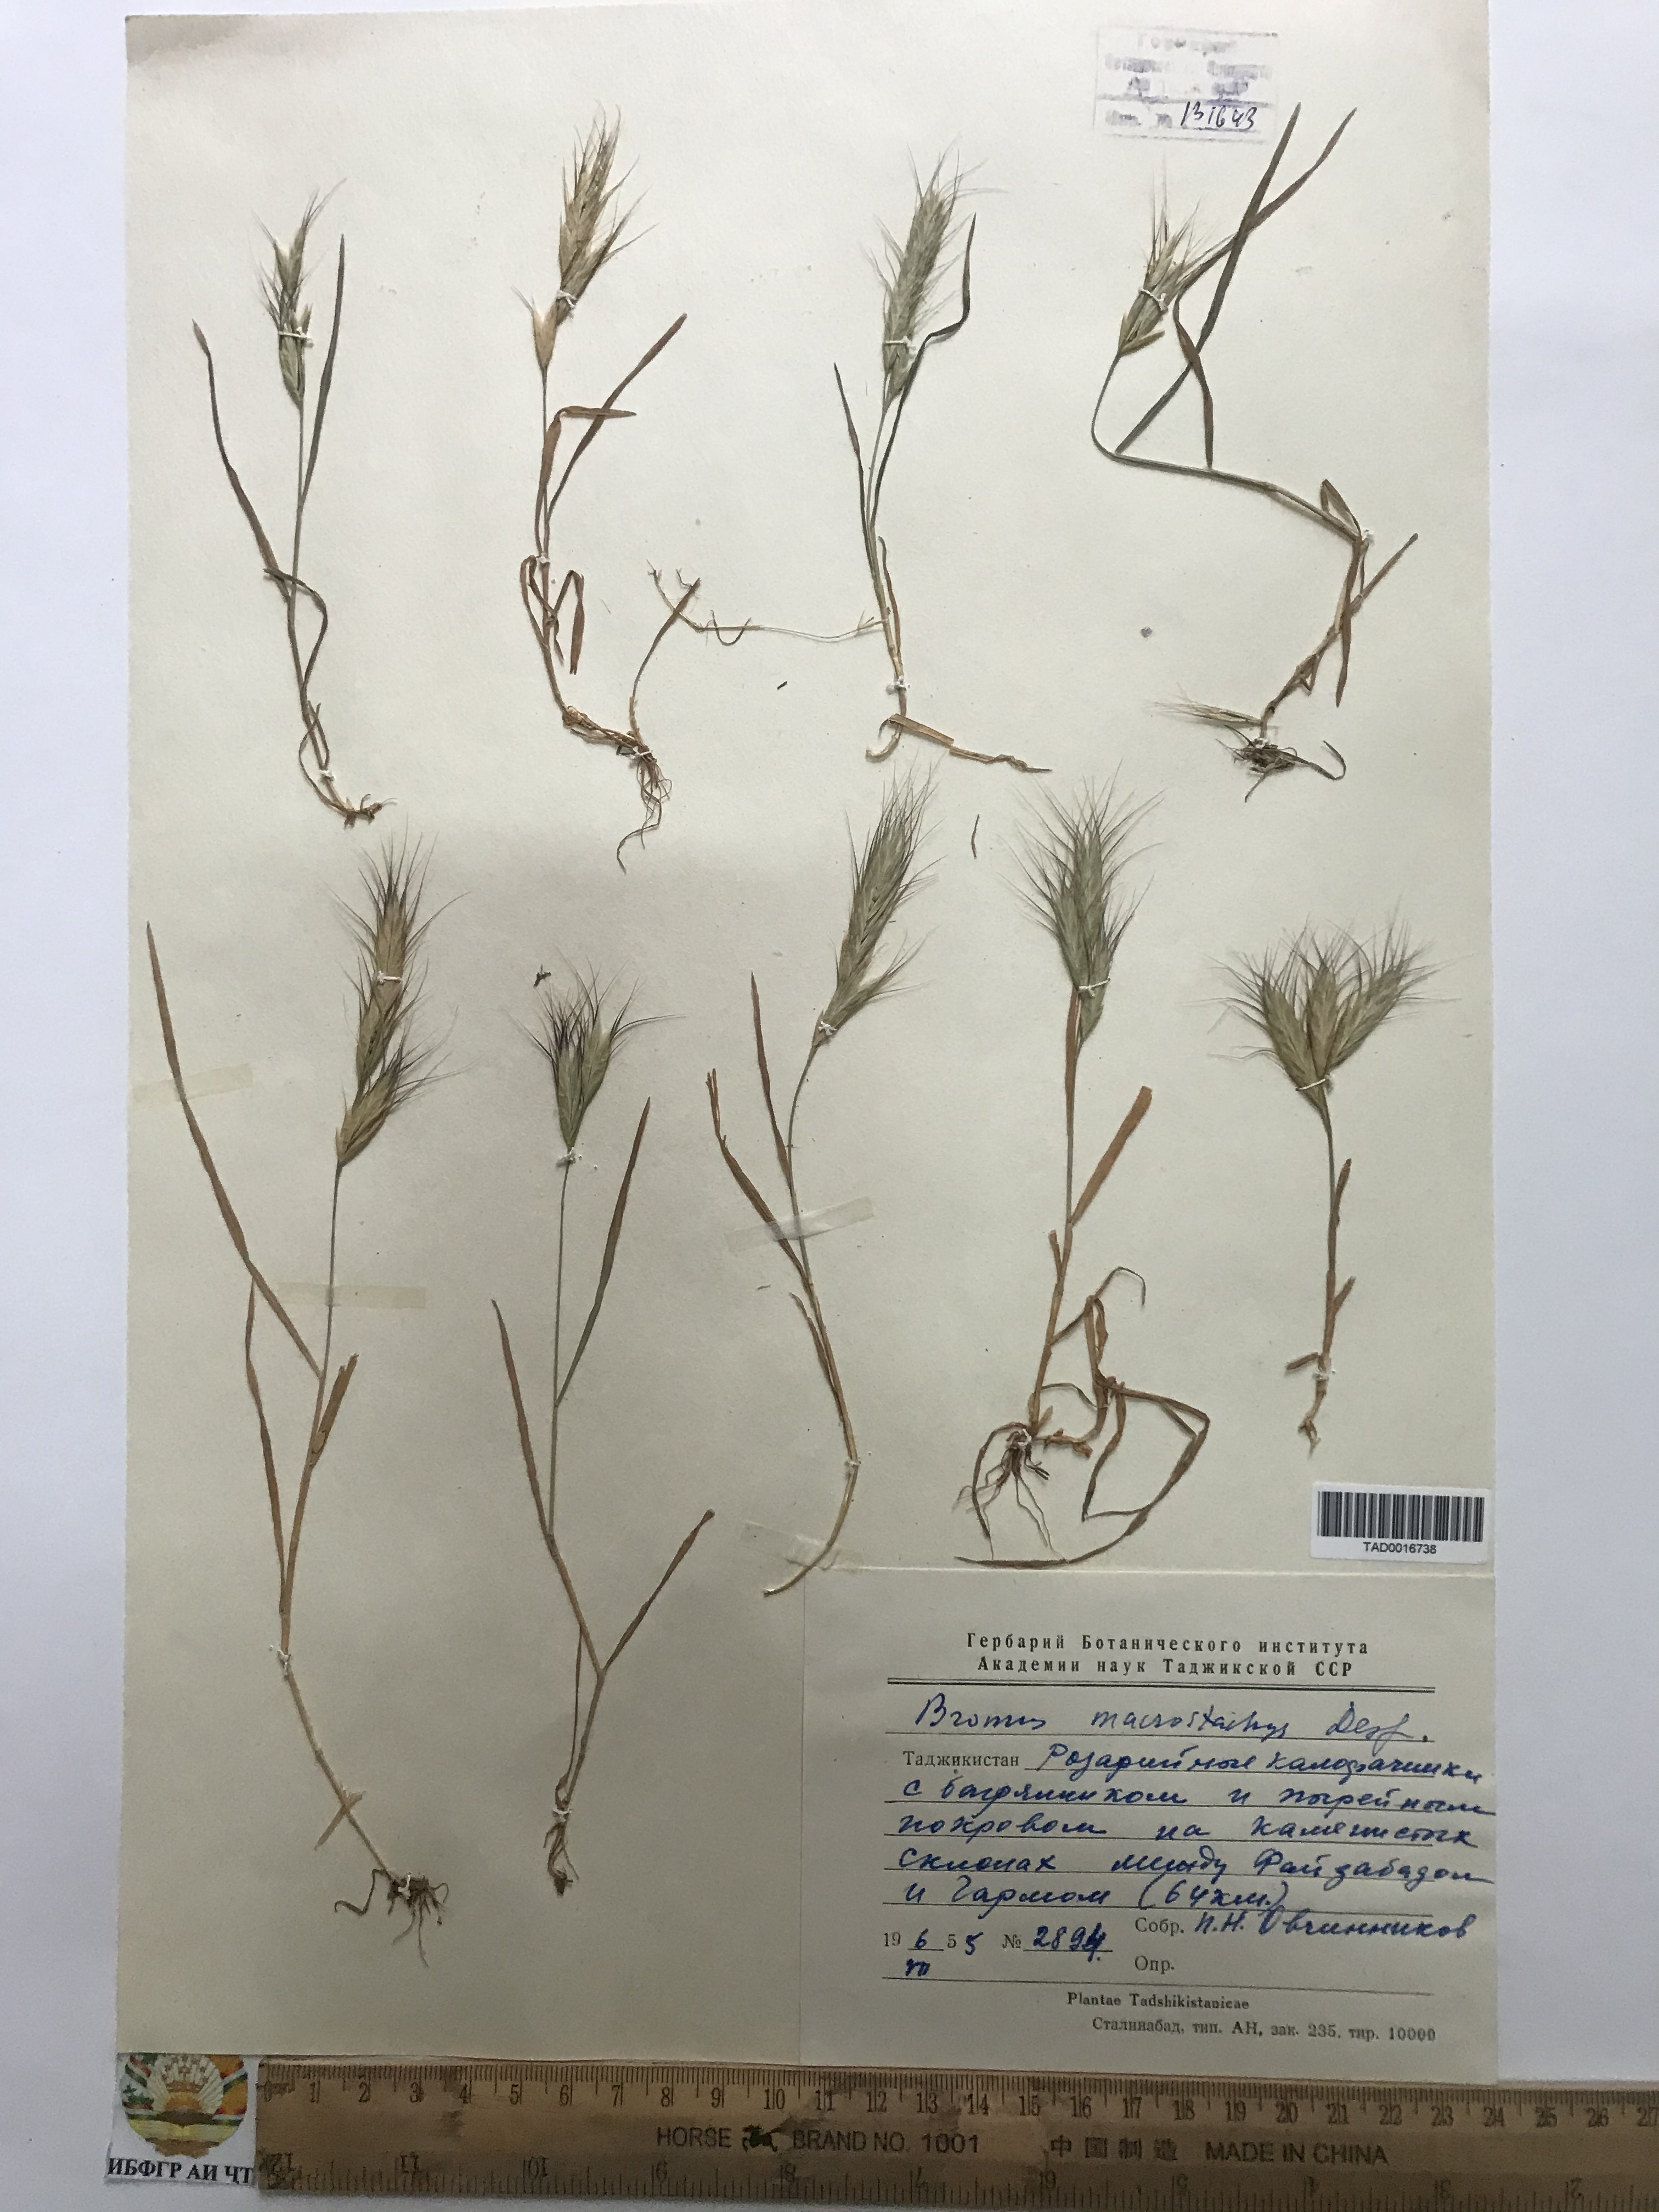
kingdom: Plantae
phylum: Tracheophyta
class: Liliopsida
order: Poales
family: Poaceae
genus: Bromus
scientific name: Bromus lanceolatus
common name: Mediterranean brome
